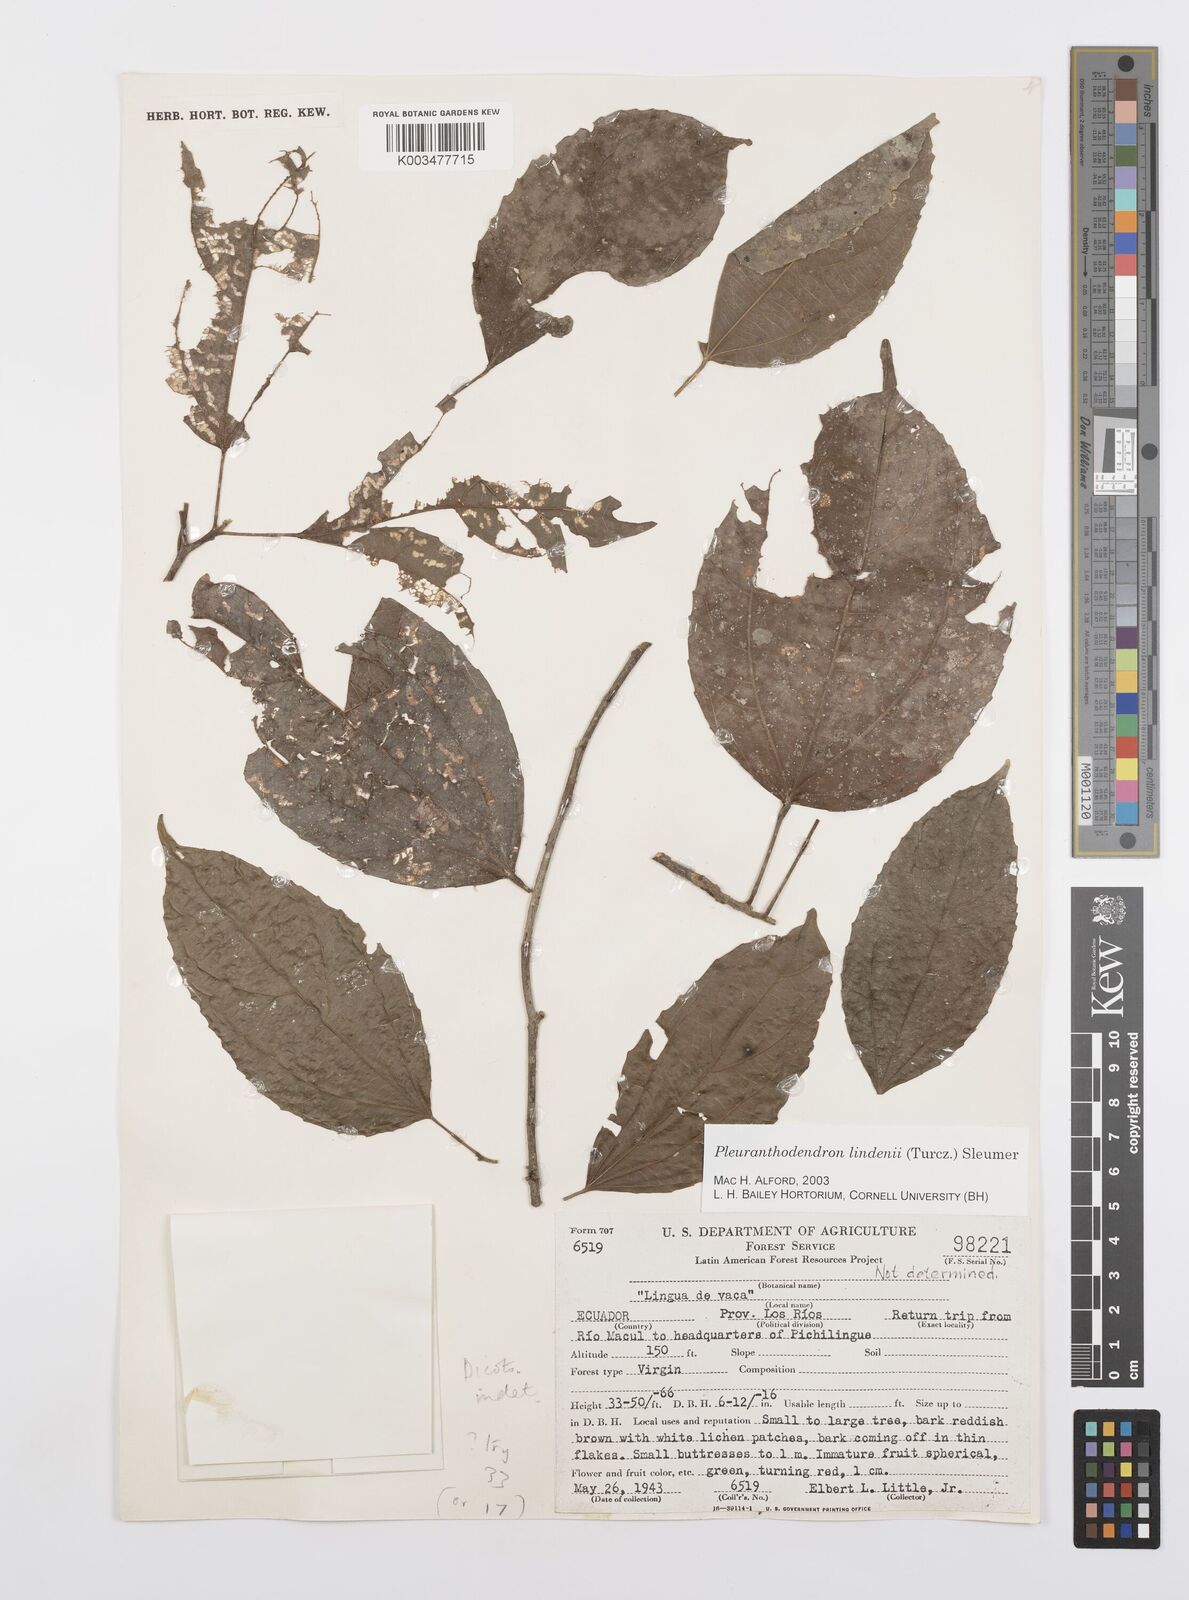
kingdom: Plantae
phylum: Tracheophyta
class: Magnoliopsida
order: Malpighiales
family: Salicaceae
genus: Pleuranthodendron
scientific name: Pleuranthodendron lindenii
